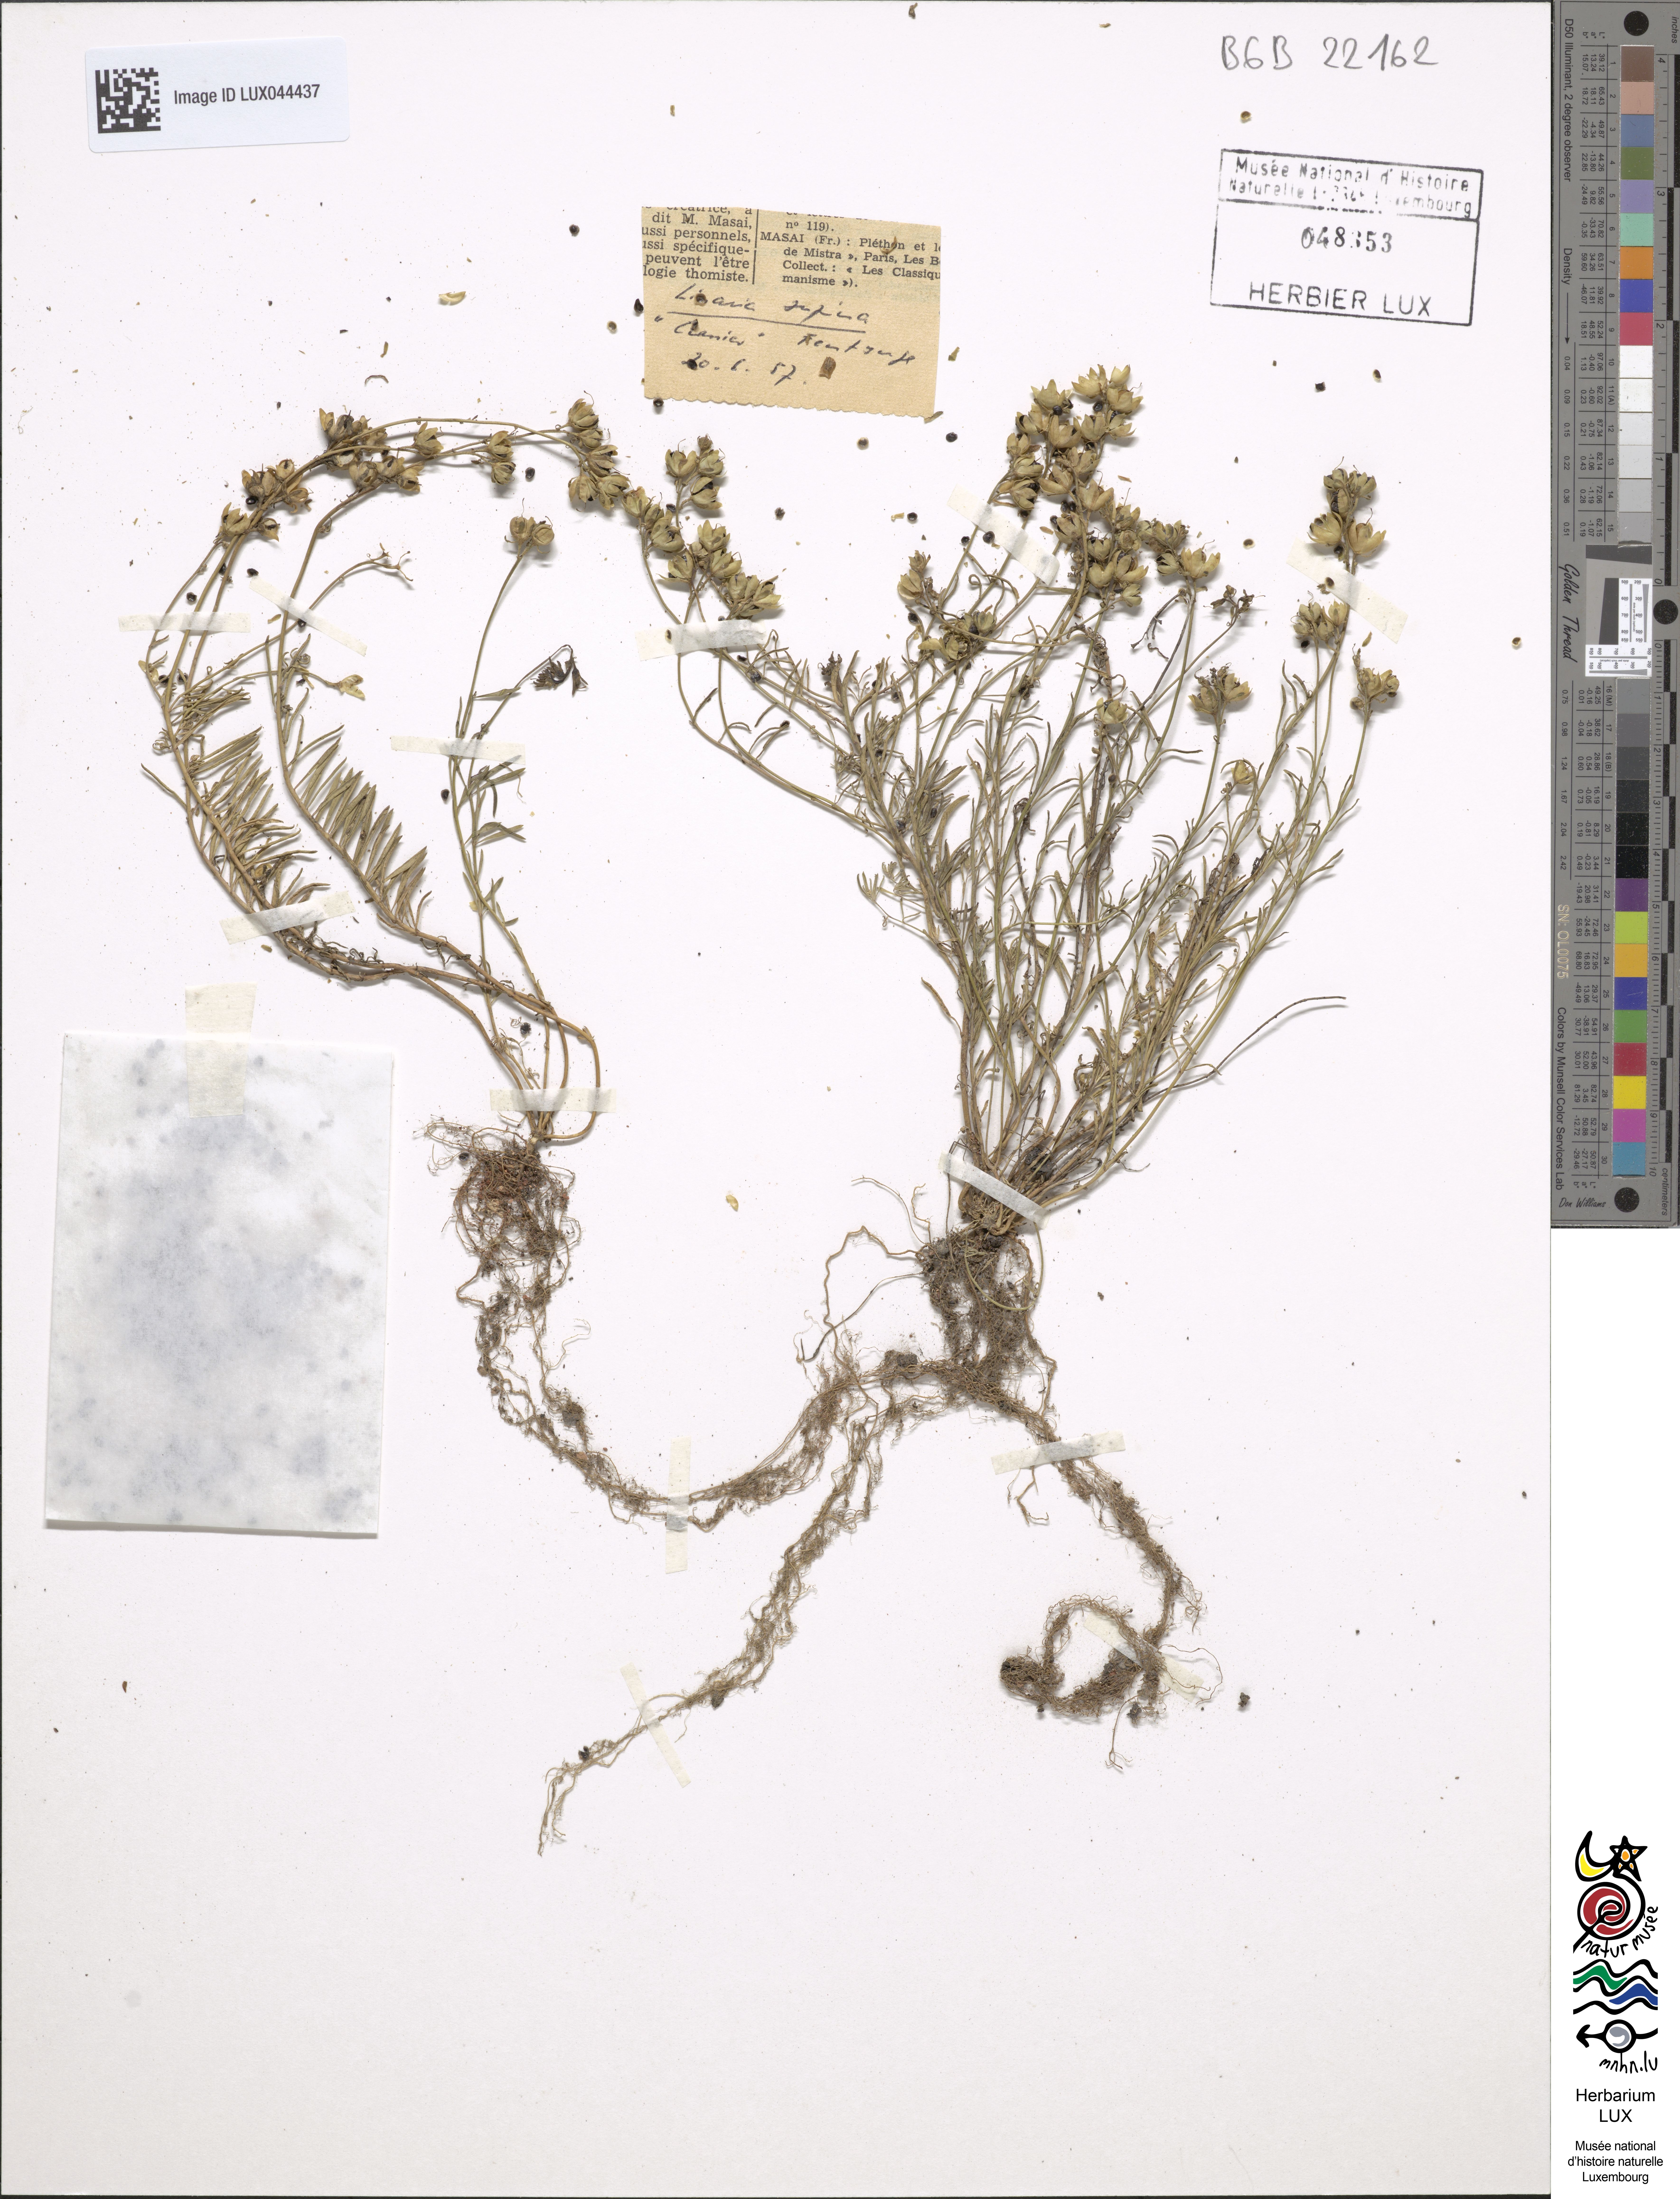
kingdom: Plantae
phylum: Tracheophyta
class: Magnoliopsida
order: Lamiales
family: Plantaginaceae
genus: Linaria
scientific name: Linaria supina
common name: Prostrate toadflax
